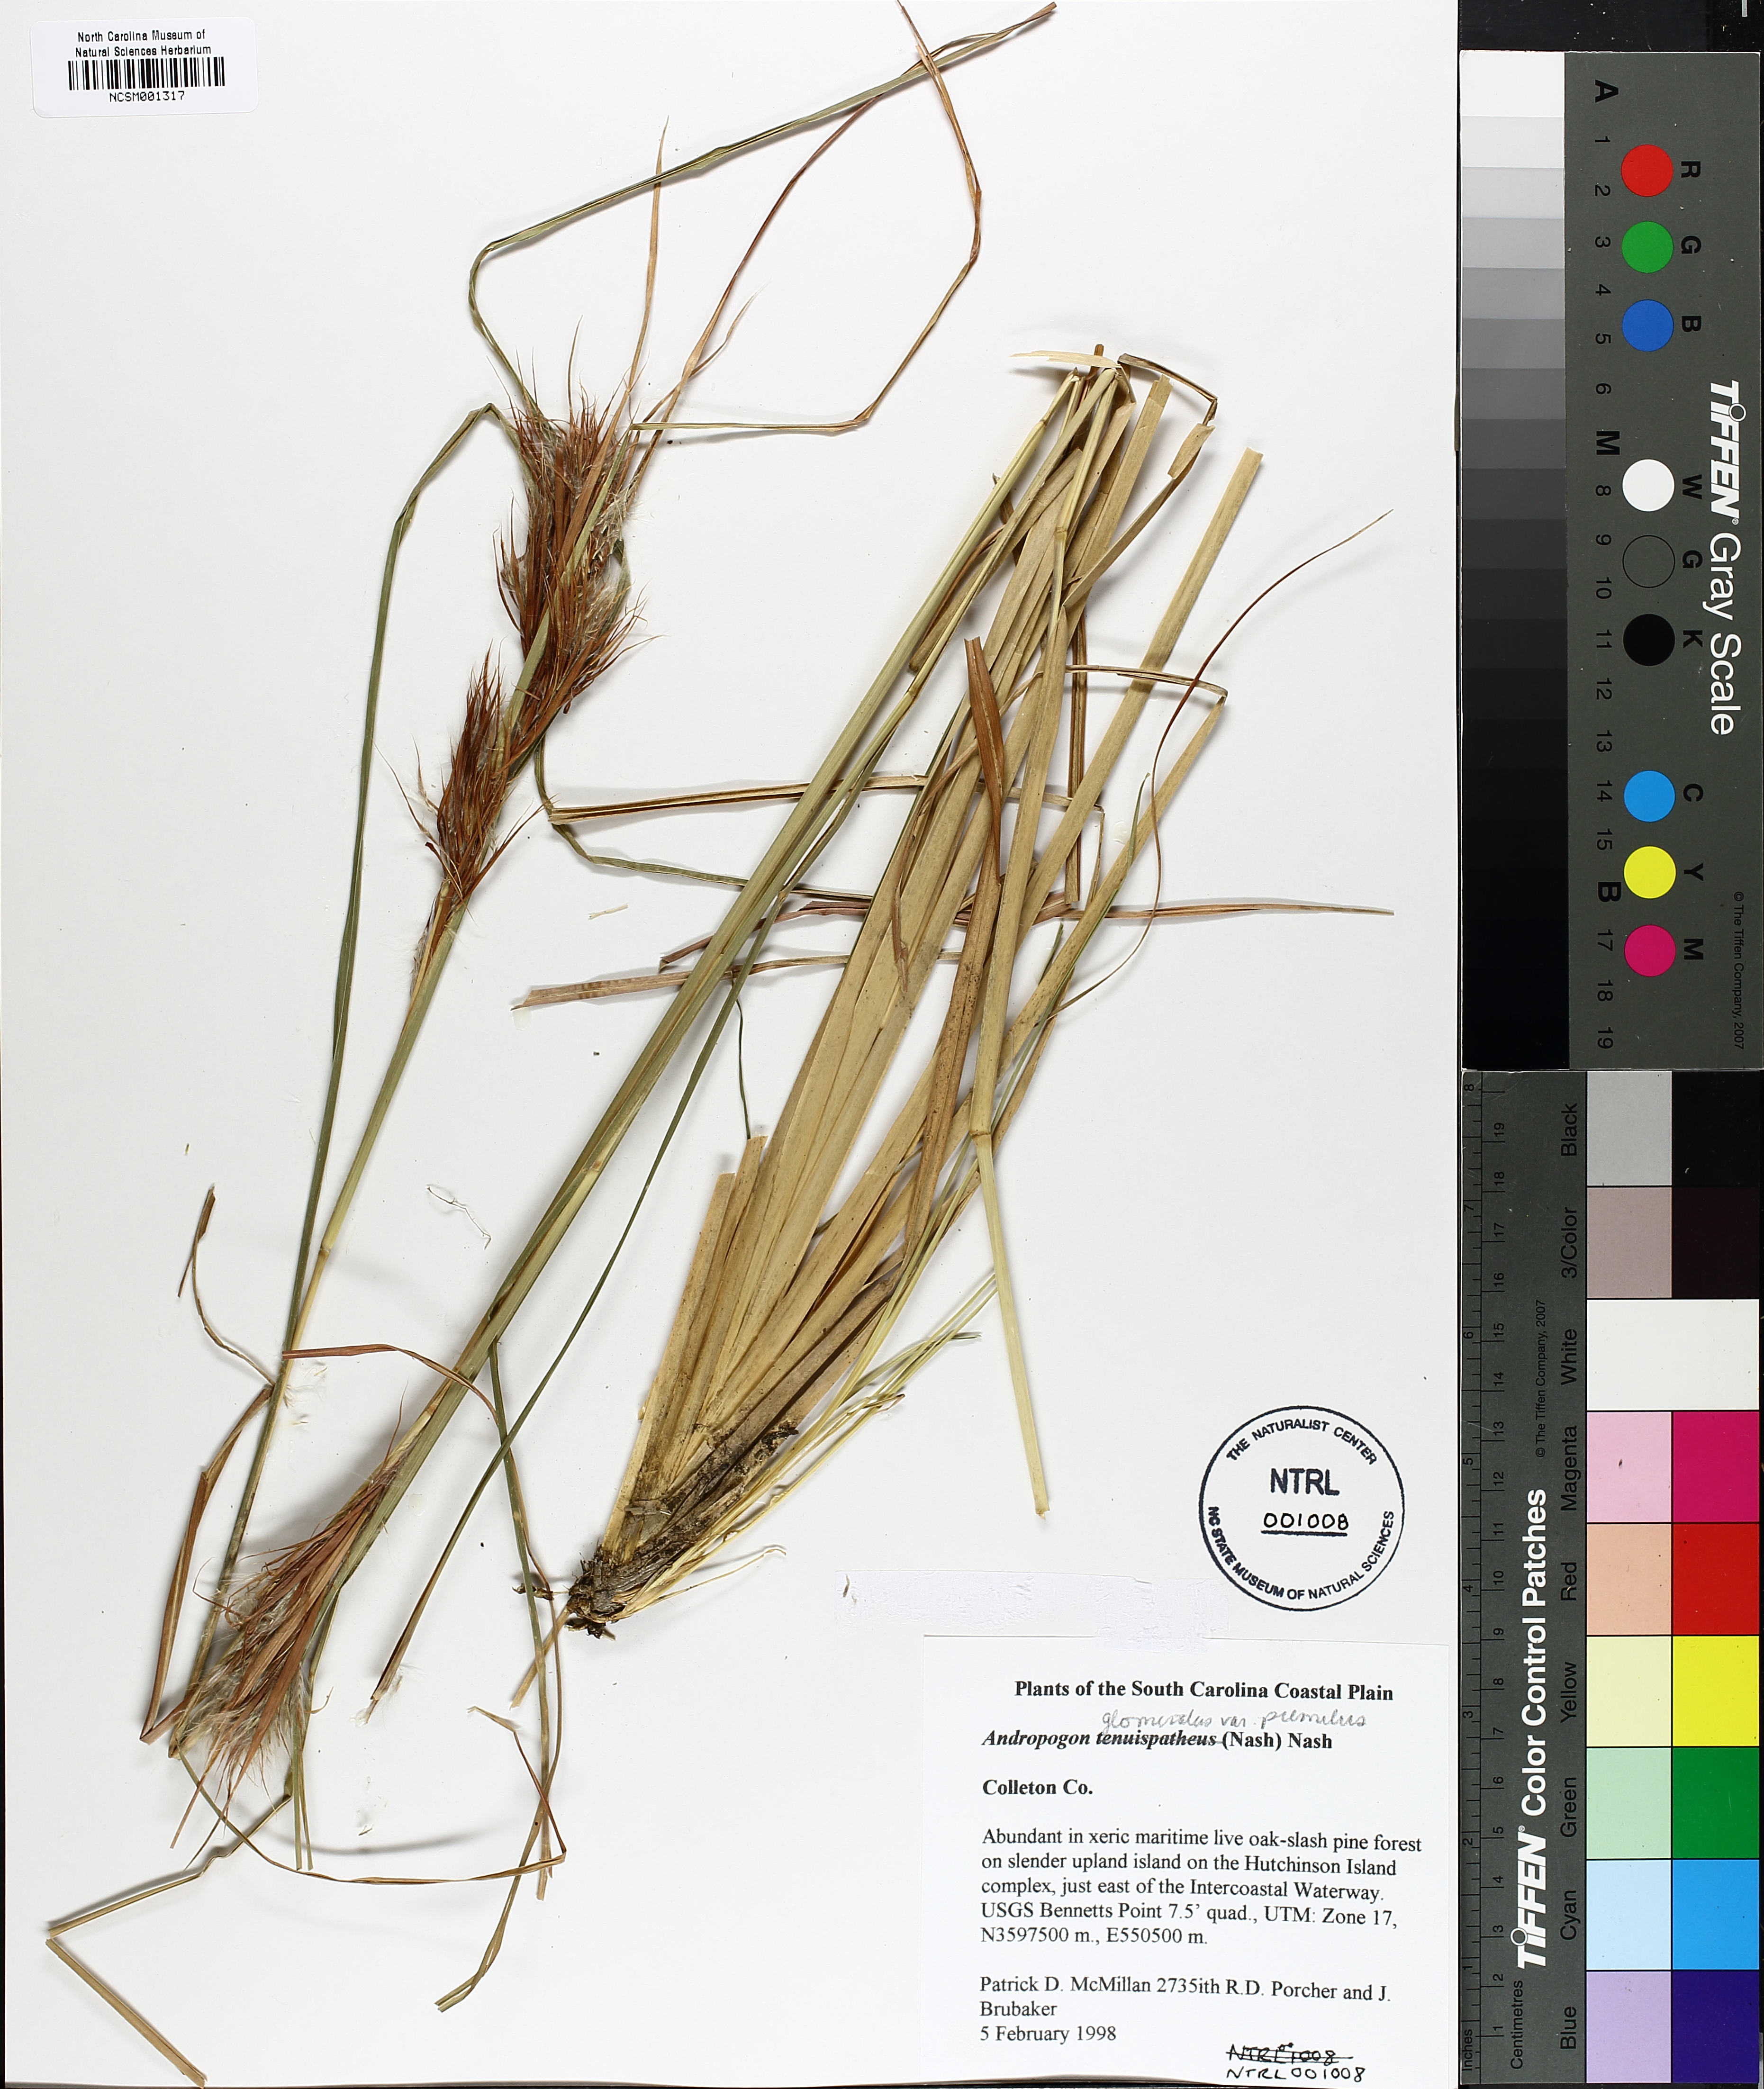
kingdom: Plantae
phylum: Tracheophyta
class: Liliopsida
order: Poales
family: Poaceae
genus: Andropogon
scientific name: Andropogon tenuispatheus
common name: Bushy bluestem
